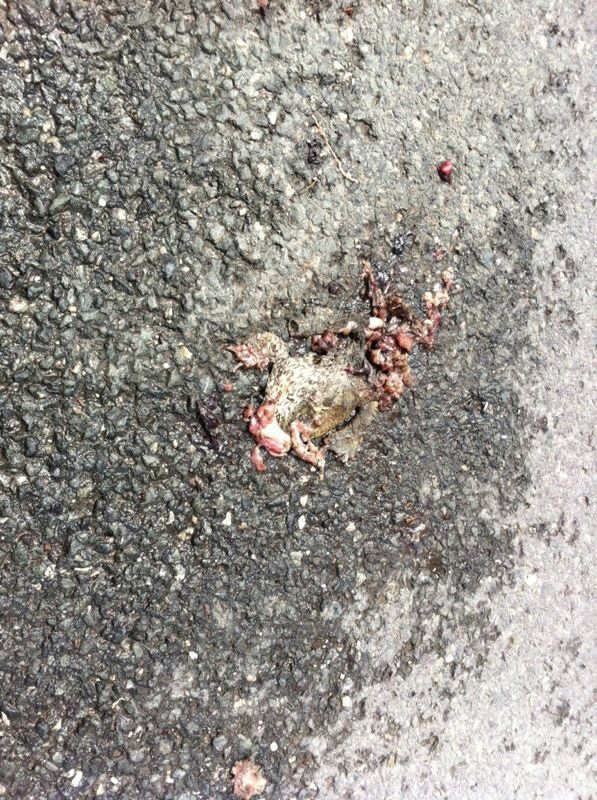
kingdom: Animalia
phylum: Chordata
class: Amphibia
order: Anura
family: Bufonidae
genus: Bufo
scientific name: Bufo bufo
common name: Common toad
